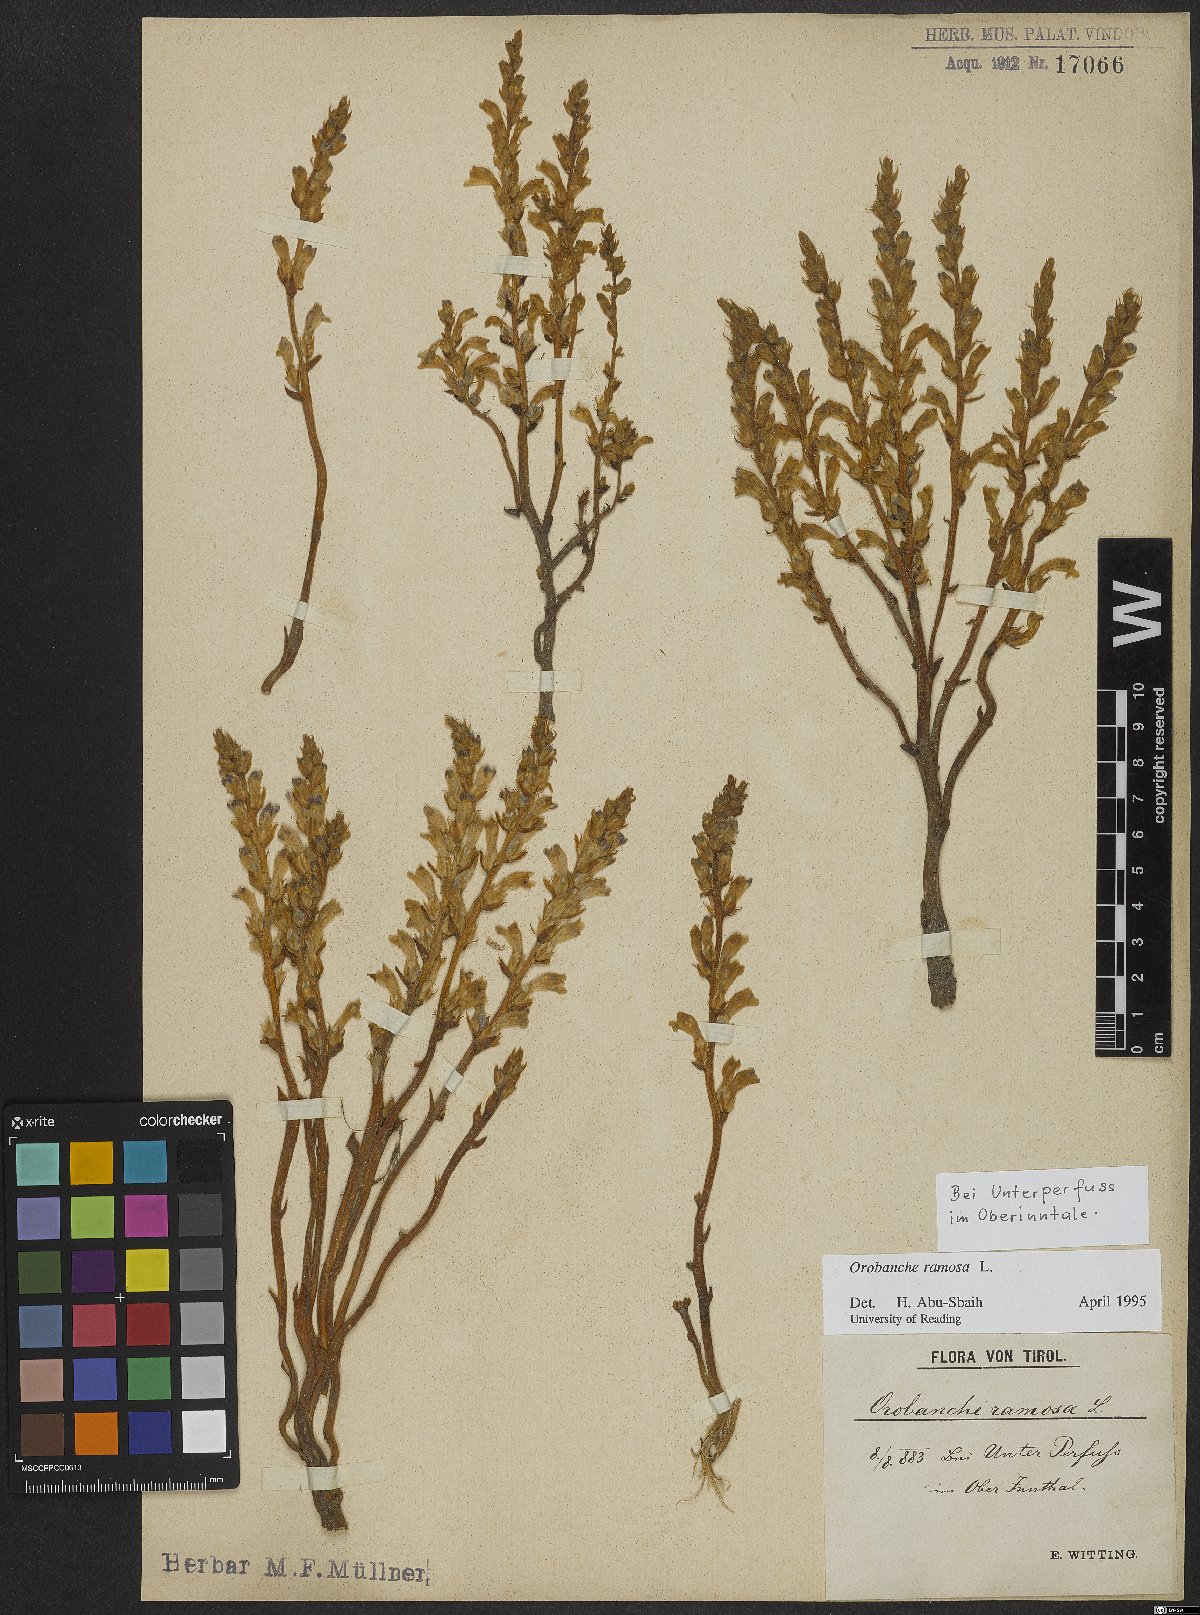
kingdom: Plantae
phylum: Tracheophyta
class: Magnoliopsida
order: Lamiales
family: Orobanchaceae
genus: Phelipanche
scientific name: Phelipanche ramosa
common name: Branched broomrape
